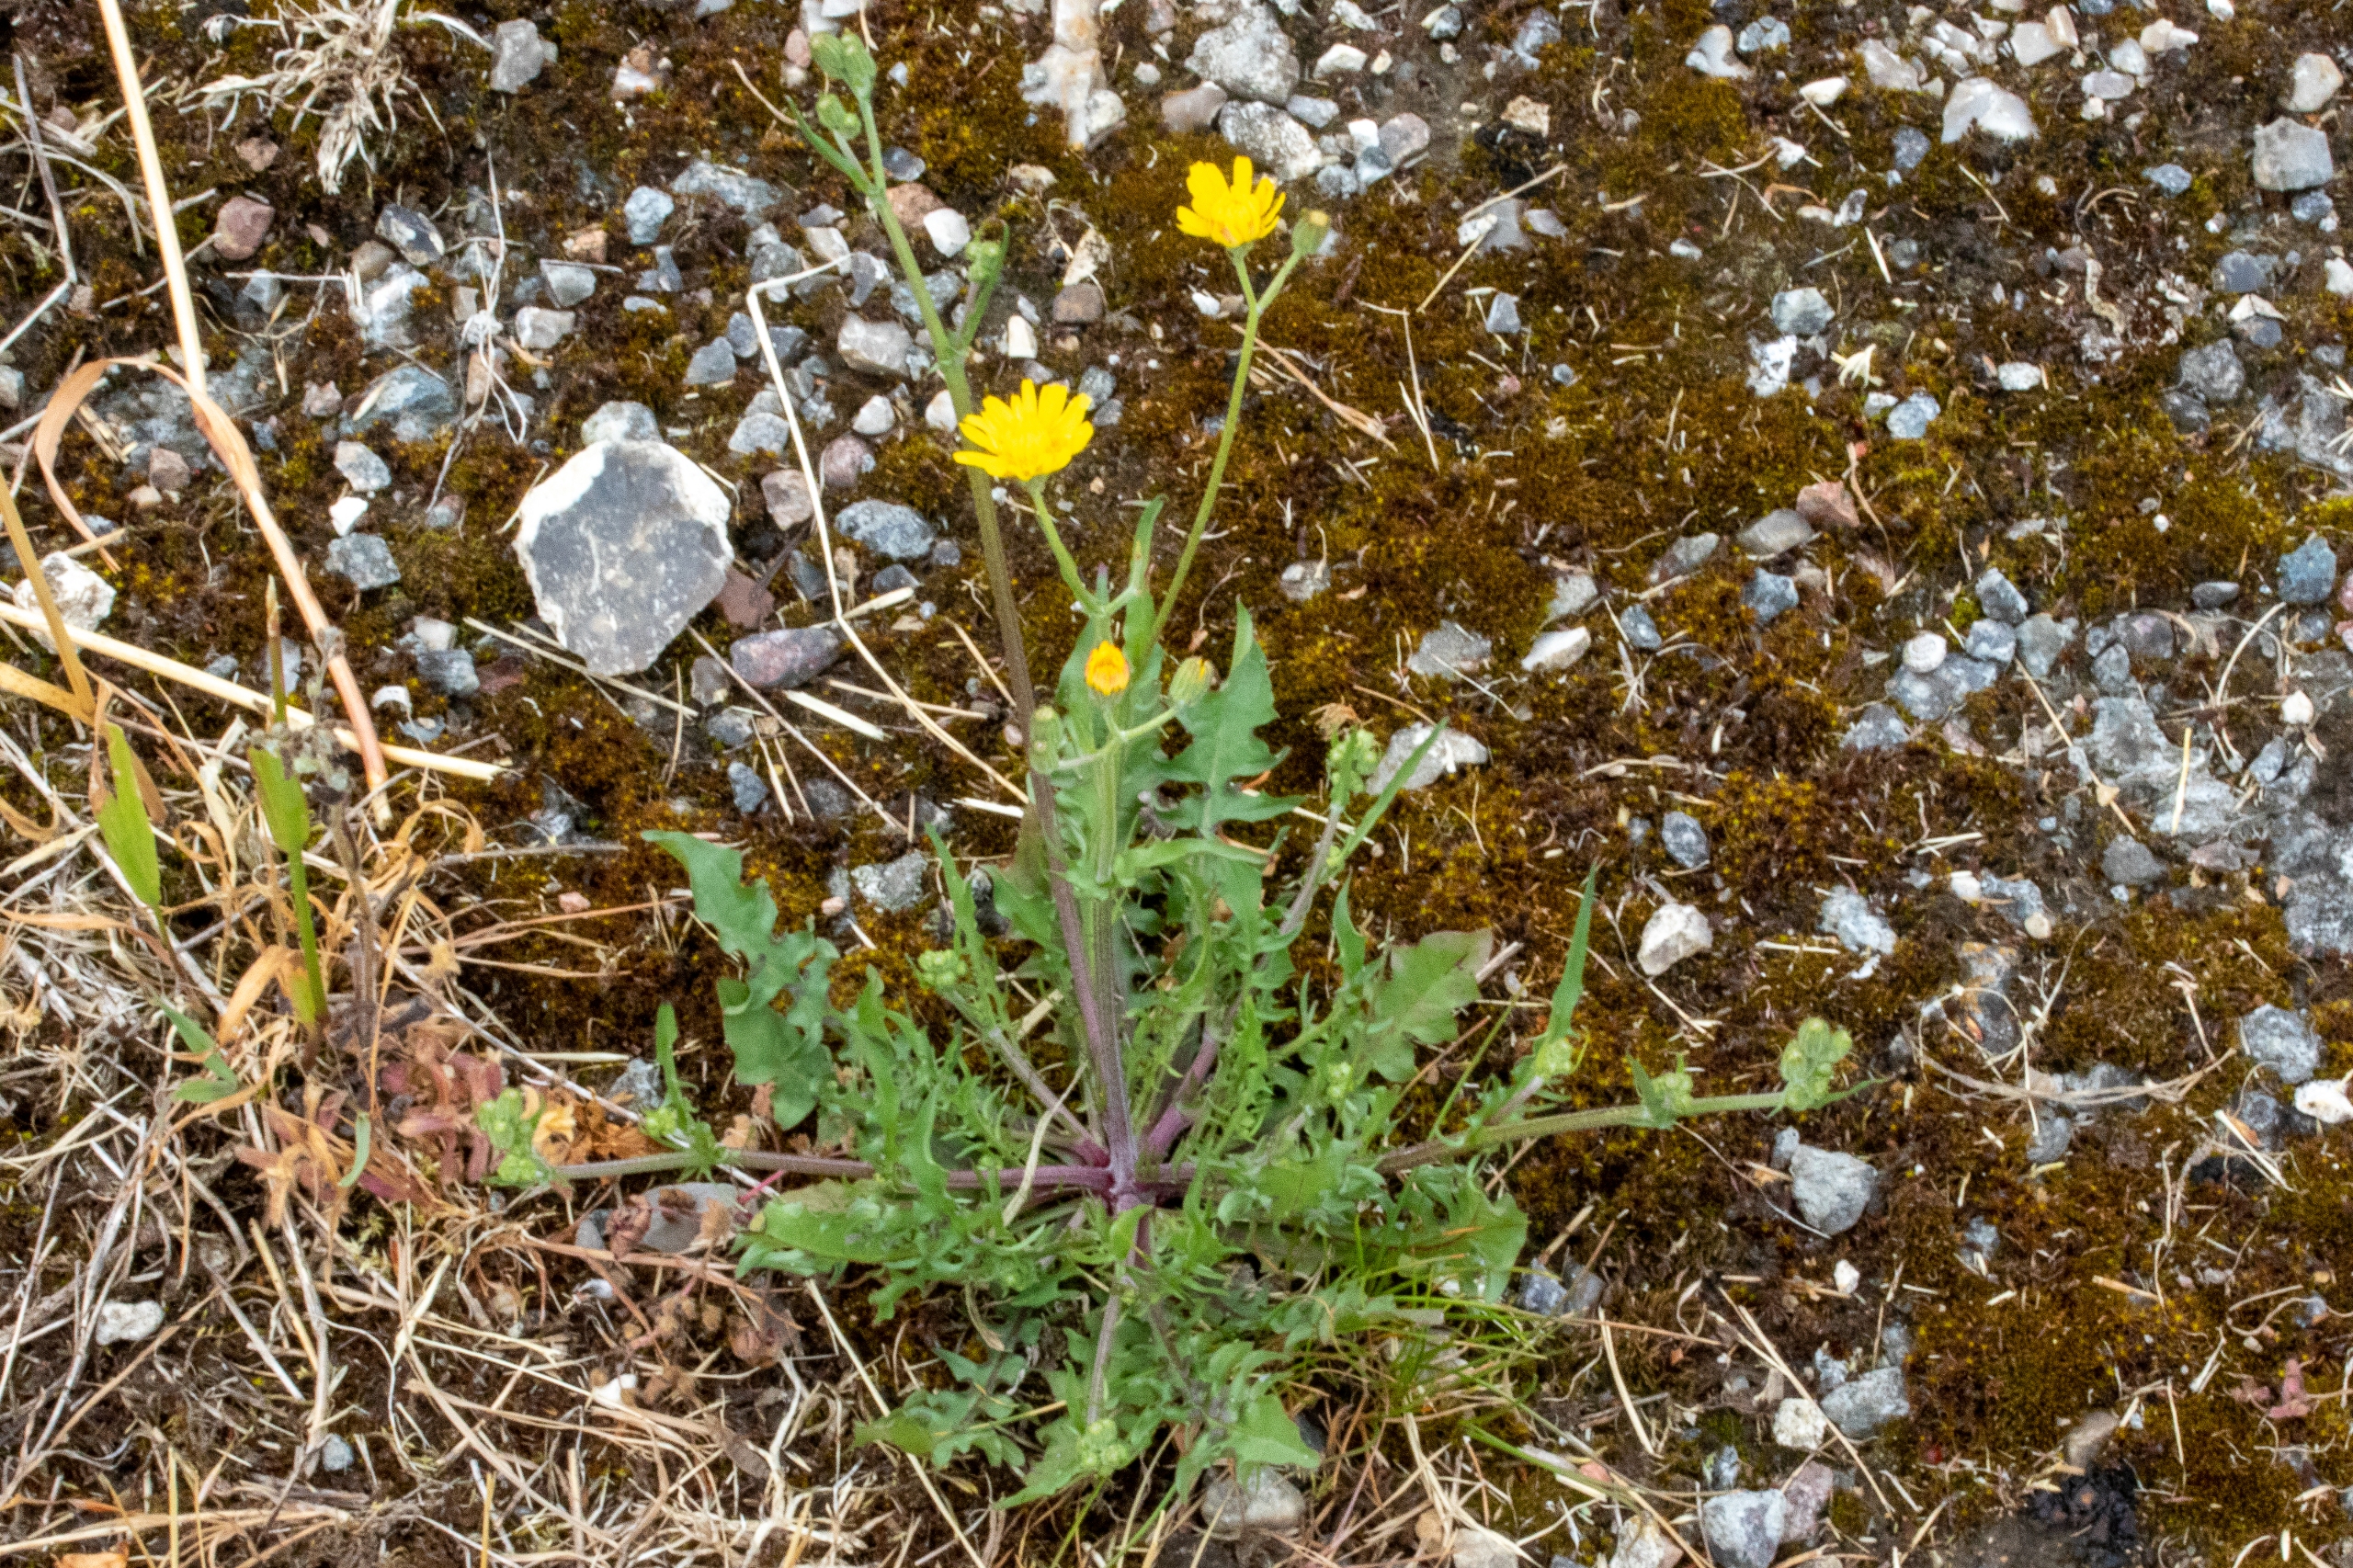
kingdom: Plantae
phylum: Tracheophyta
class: Magnoliopsida
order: Asterales
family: Asteraceae
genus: Crepis
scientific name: Crepis capillaris
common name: Grøn høgeskæg
